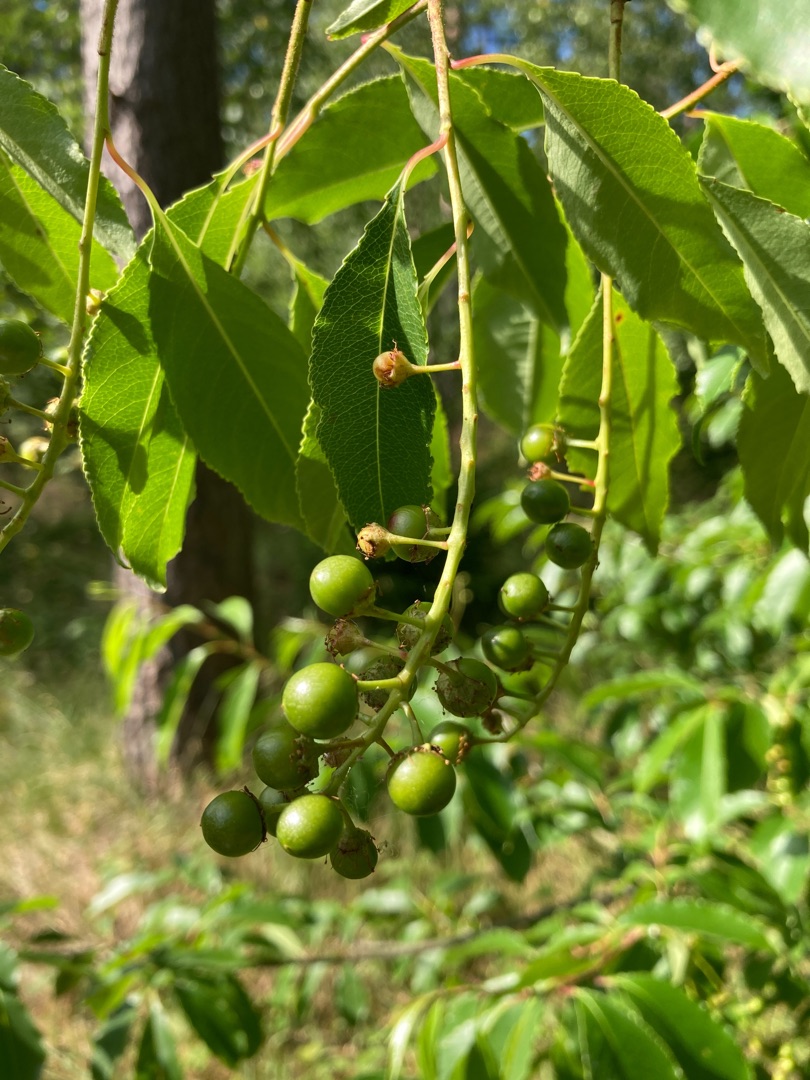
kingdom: Plantae
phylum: Tracheophyta
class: Magnoliopsida
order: Rosales
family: Rosaceae
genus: Prunus
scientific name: Prunus serotina
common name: Glansbladet hæg
